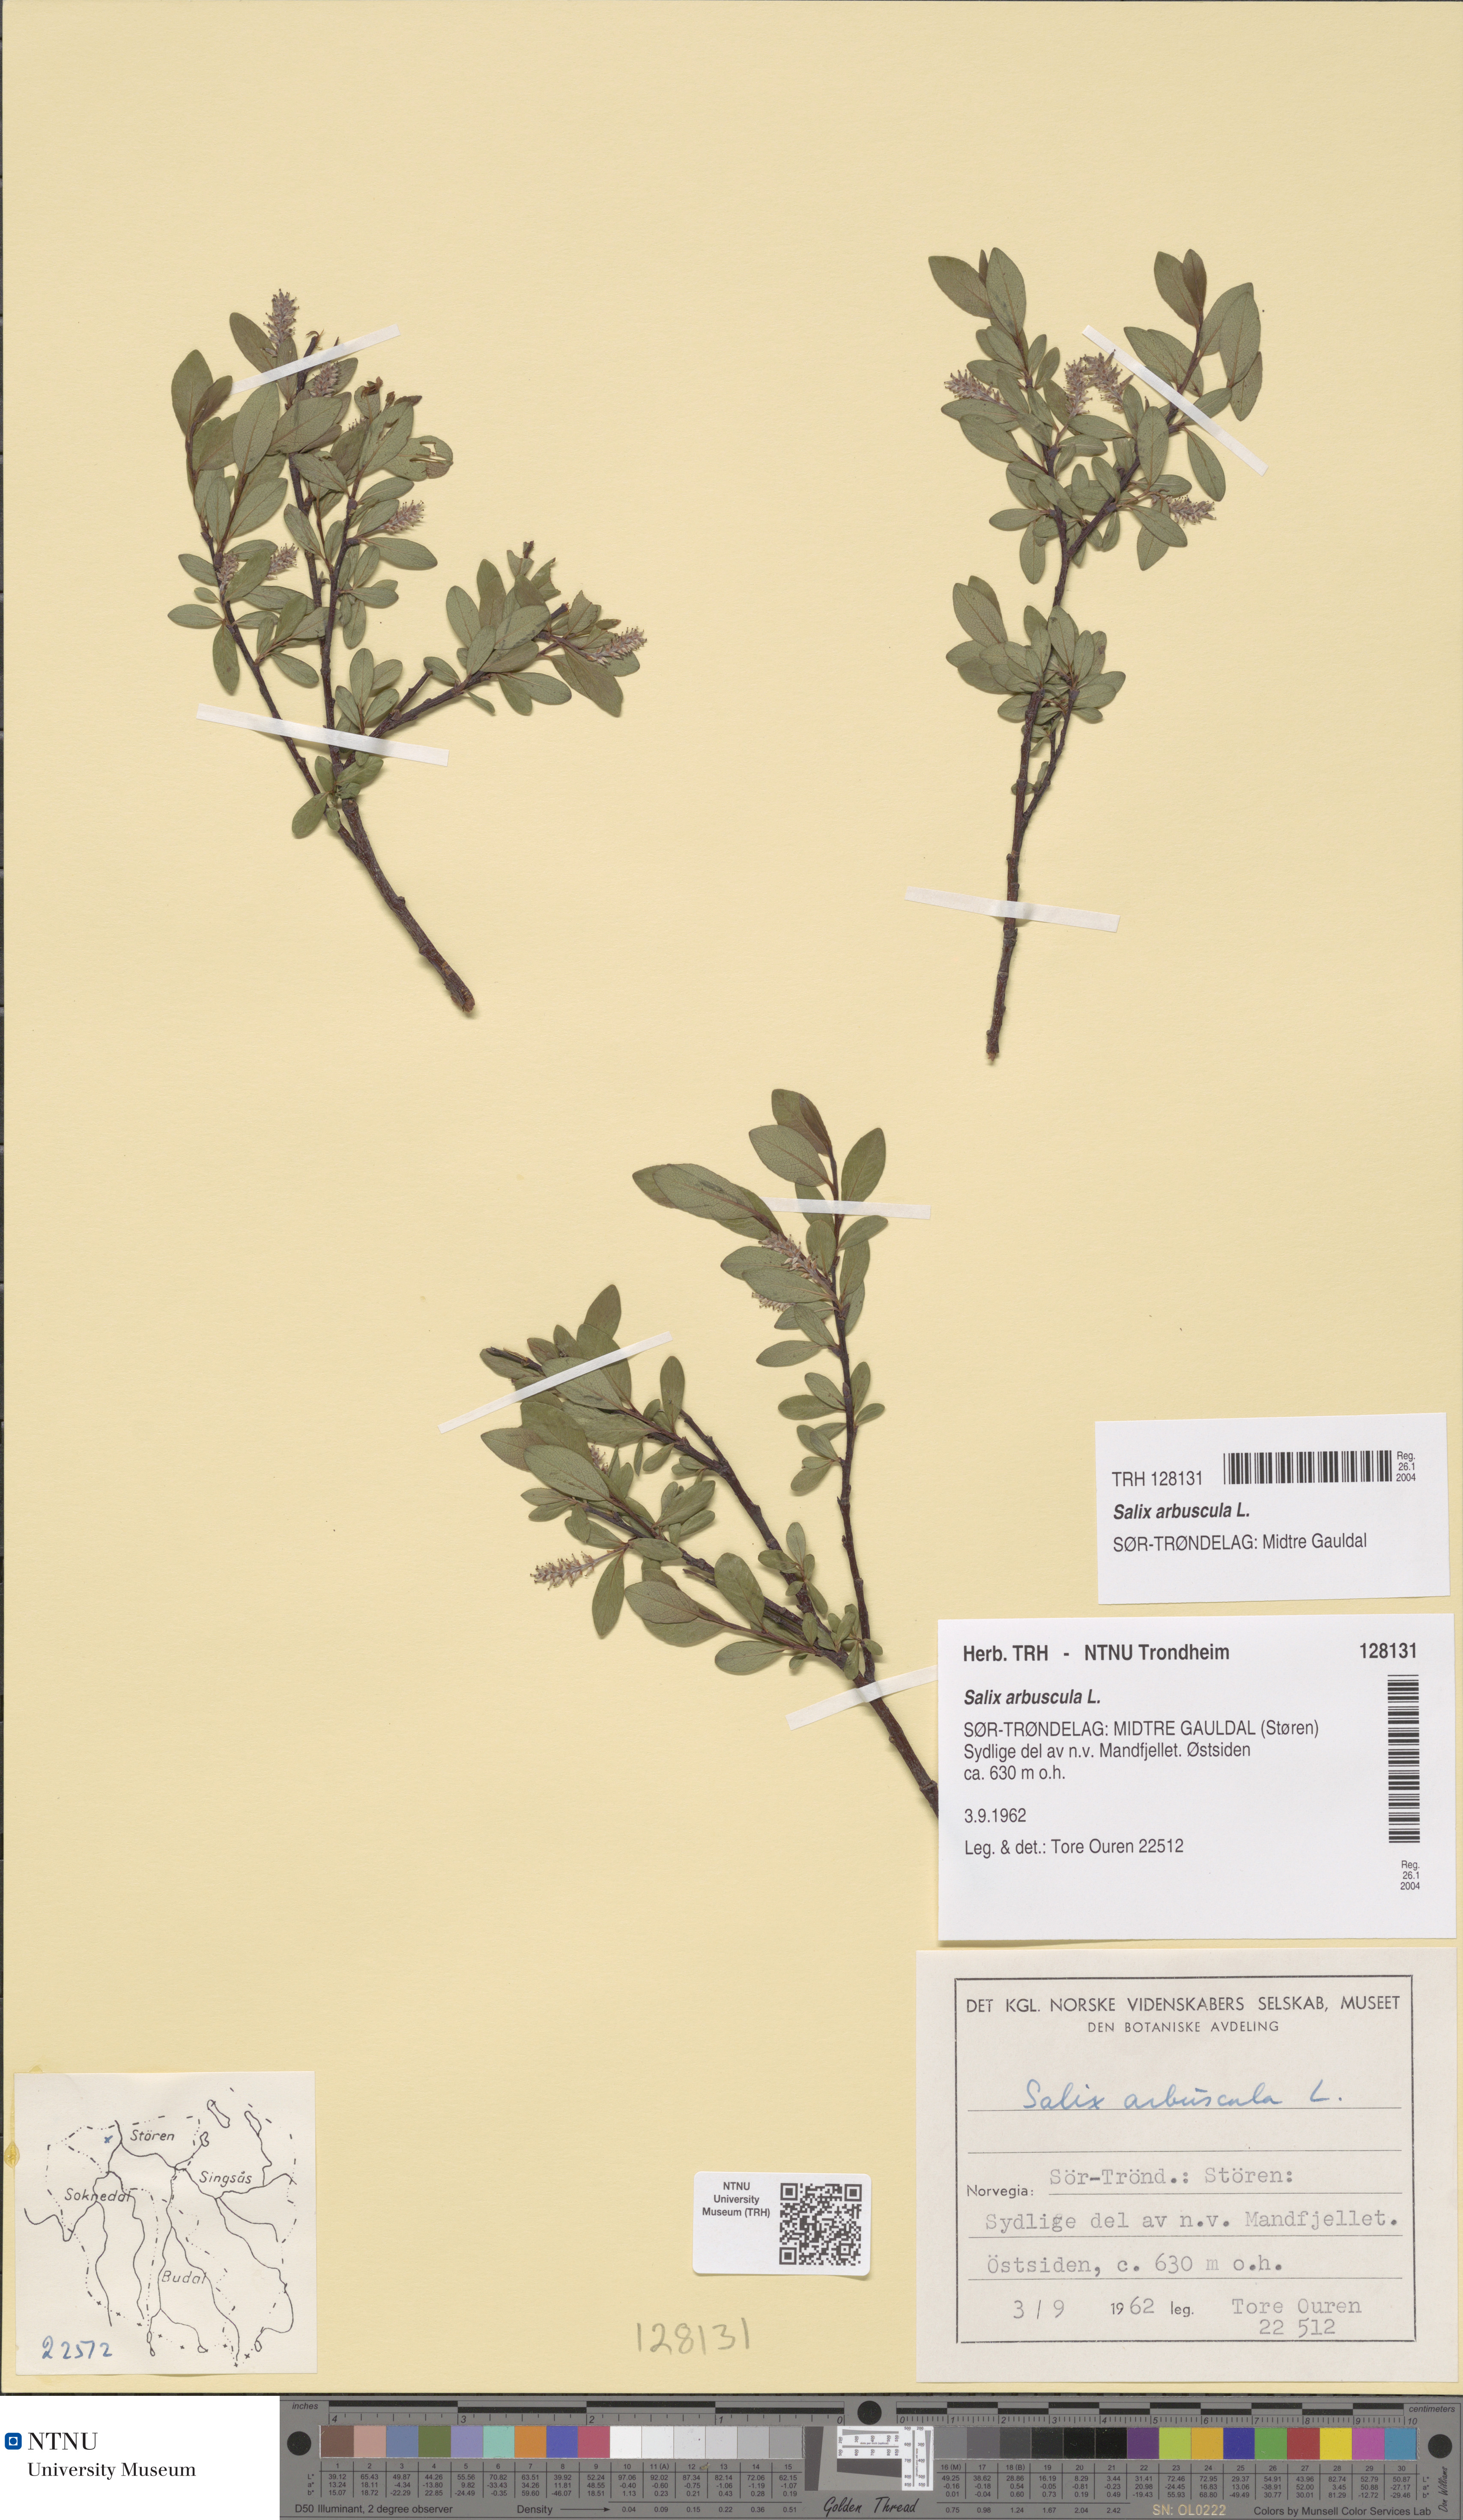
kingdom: Plantae
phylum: Tracheophyta
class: Magnoliopsida
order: Malpighiales
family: Salicaceae
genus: Salix
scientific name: Salix arbuscula
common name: Mountain willow
